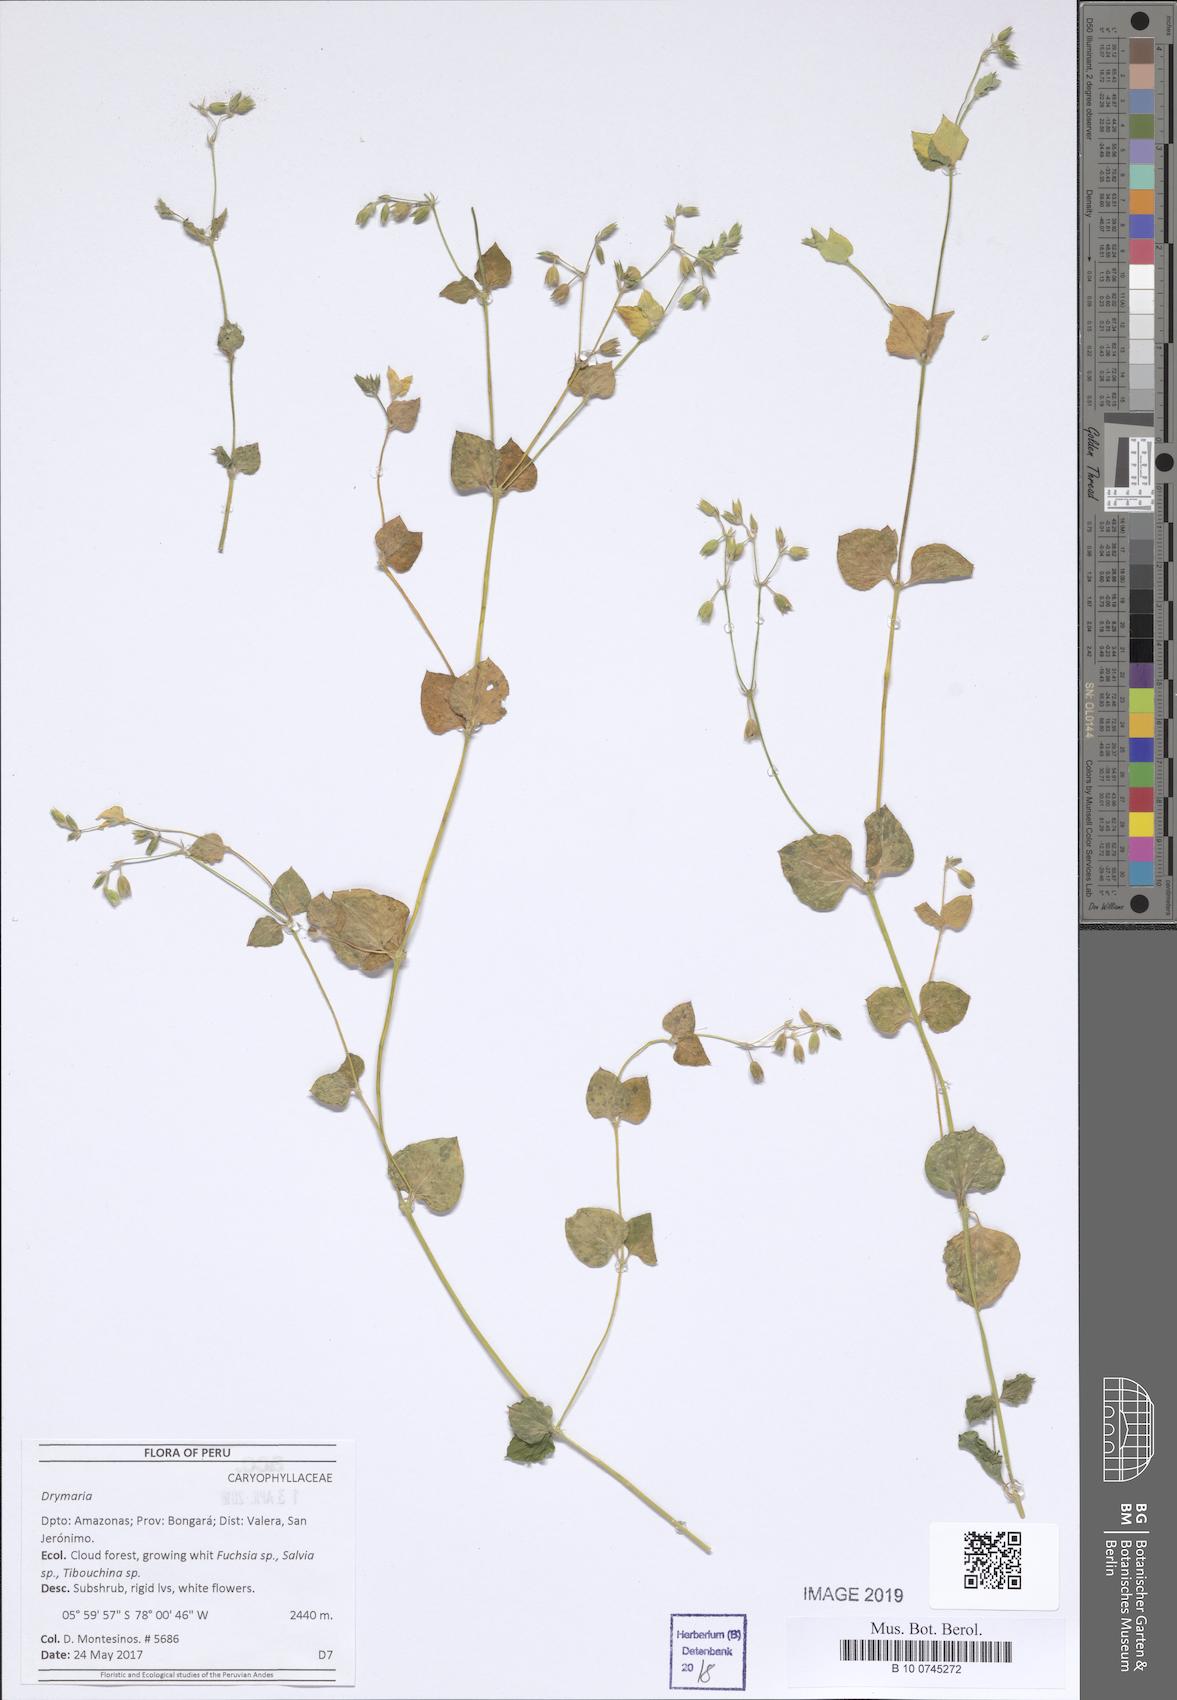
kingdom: Plantae
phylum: Tracheophyta
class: Magnoliopsida
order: Caryophyllales
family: Caryophyllaceae
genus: Drymaria
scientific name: Drymaria
